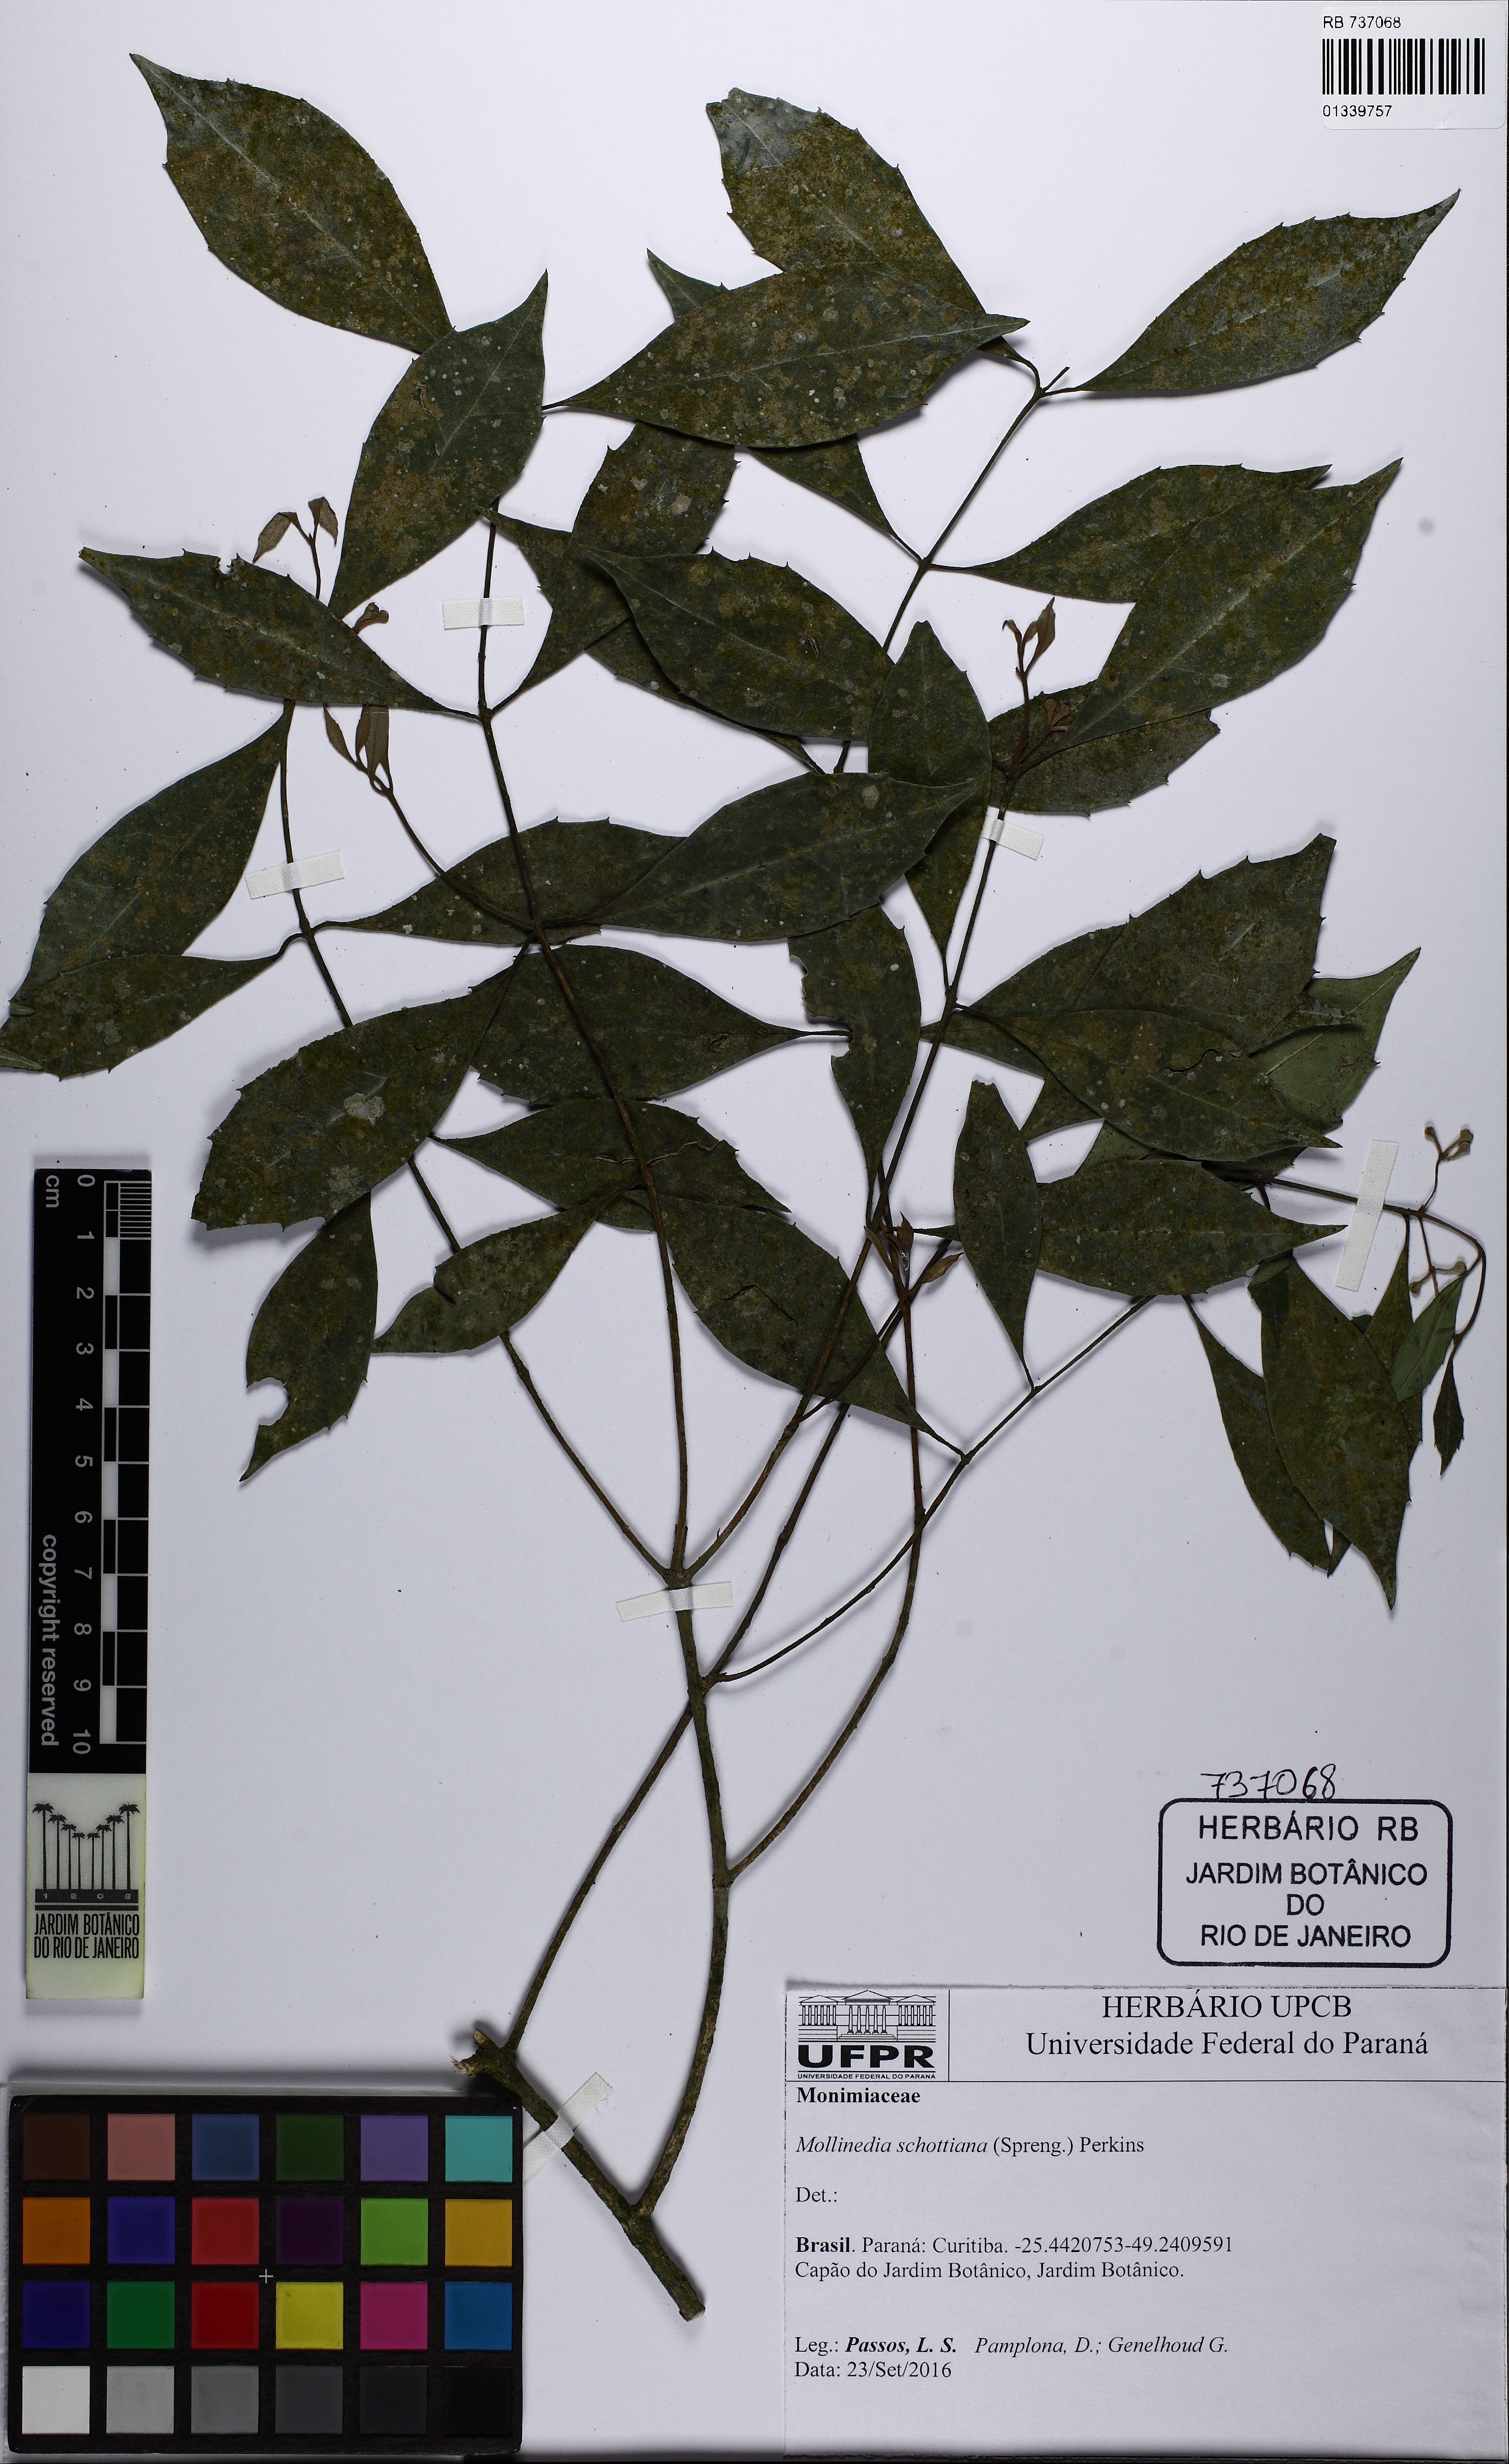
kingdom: Plantae
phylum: Tracheophyta
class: Magnoliopsida
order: Laurales
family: Monimiaceae
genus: Mollinedia
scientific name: Mollinedia umbellata
